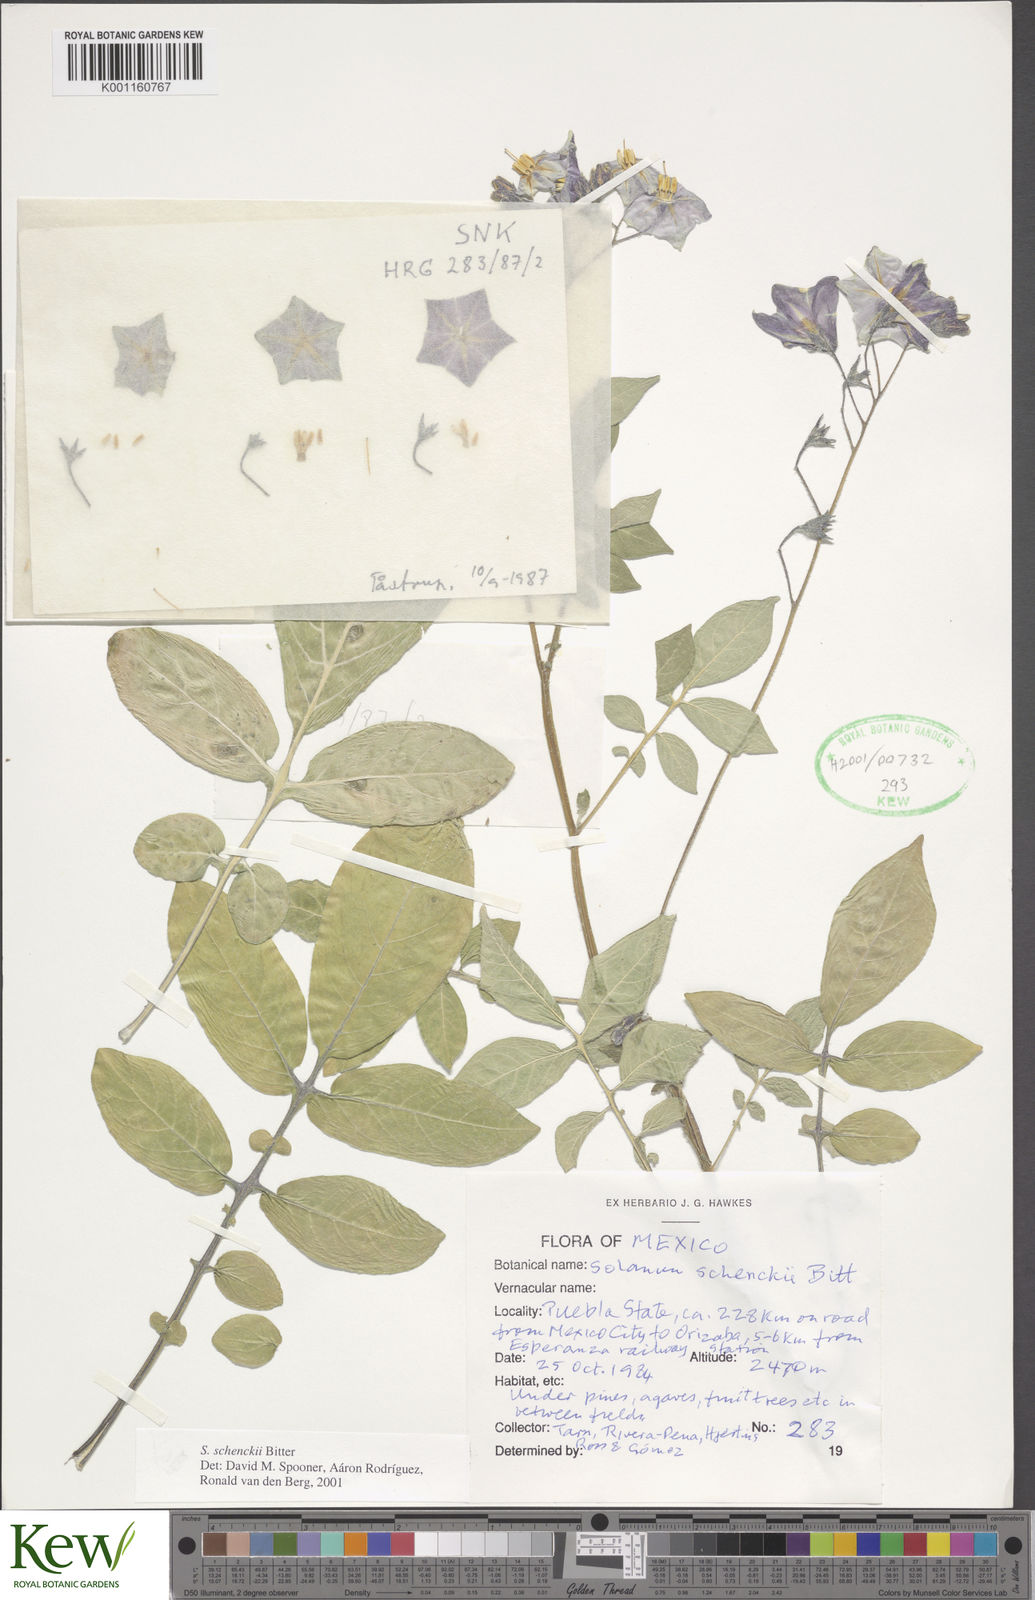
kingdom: Plantae
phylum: Tracheophyta
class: Magnoliopsida
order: Solanales
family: Solanaceae
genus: Solanum
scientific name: Solanum schenckii
